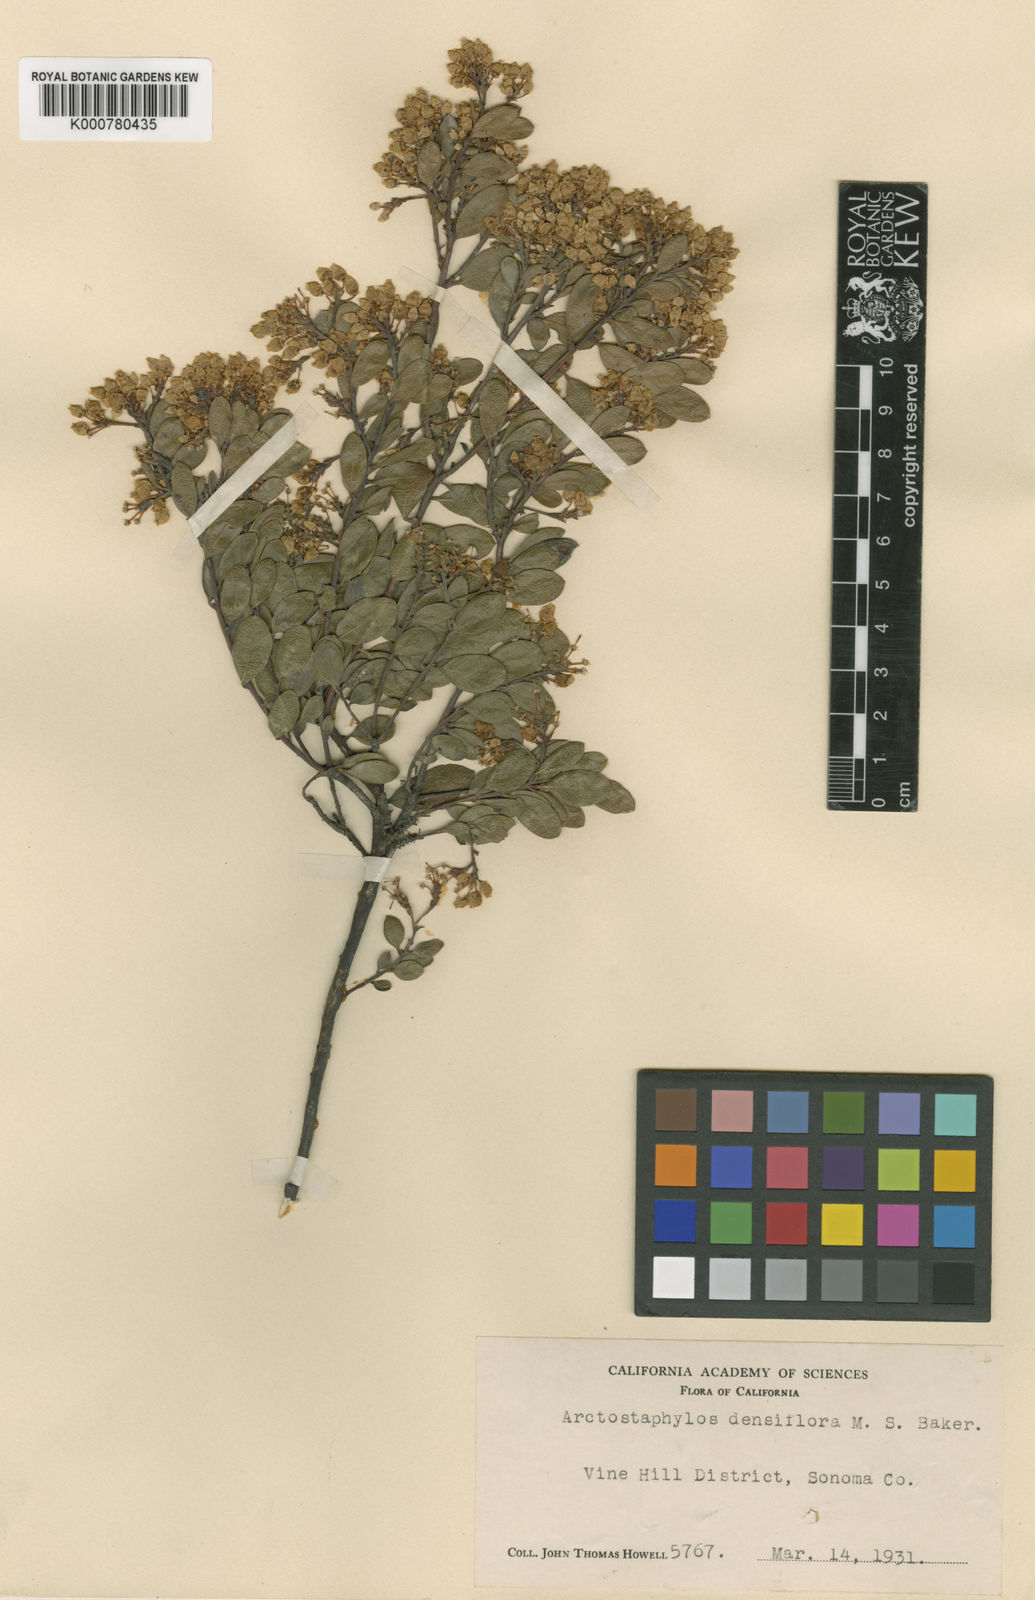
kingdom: Plantae
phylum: Tracheophyta
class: Magnoliopsida
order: Ericales
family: Ericaceae
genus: Arctostaphylos
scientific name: Arctostaphylos densiflora
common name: Vine hill manzanita
